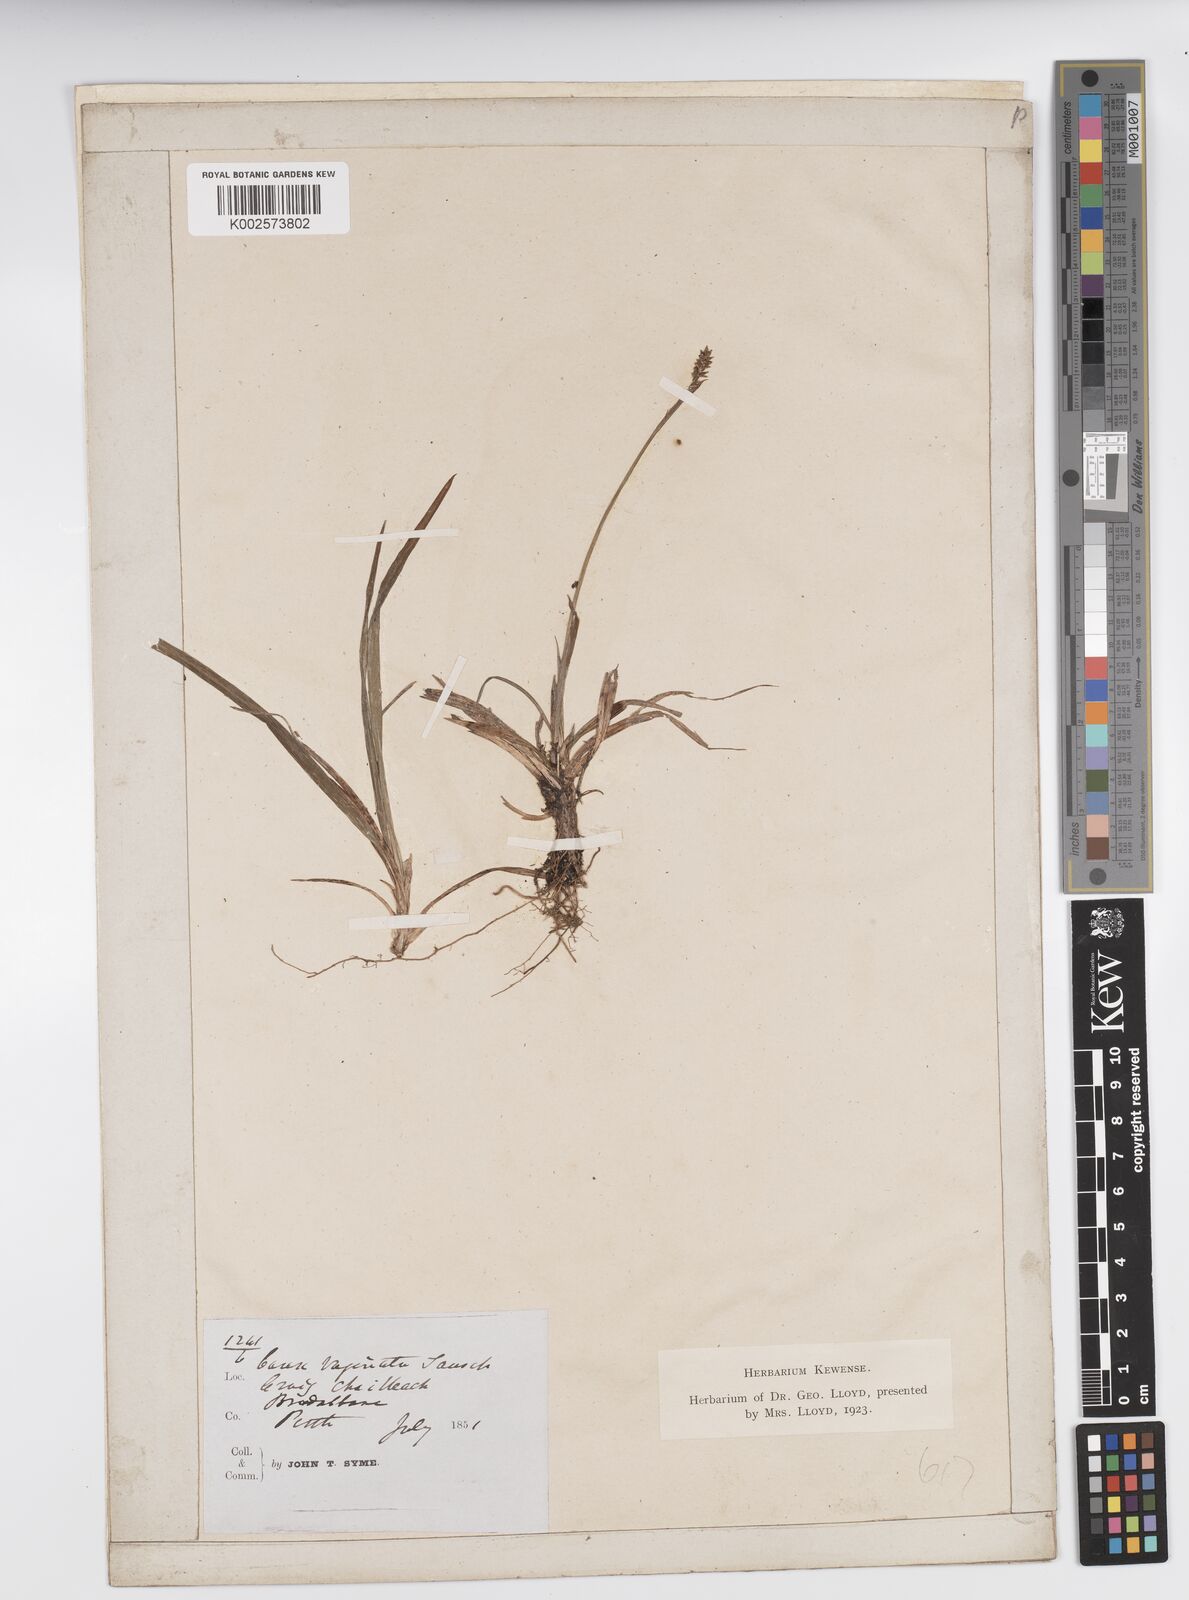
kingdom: Plantae
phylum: Tracheophyta
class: Liliopsida
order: Poales
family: Cyperaceae
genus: Carex
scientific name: Carex vaginata
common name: Sheathed sedge
